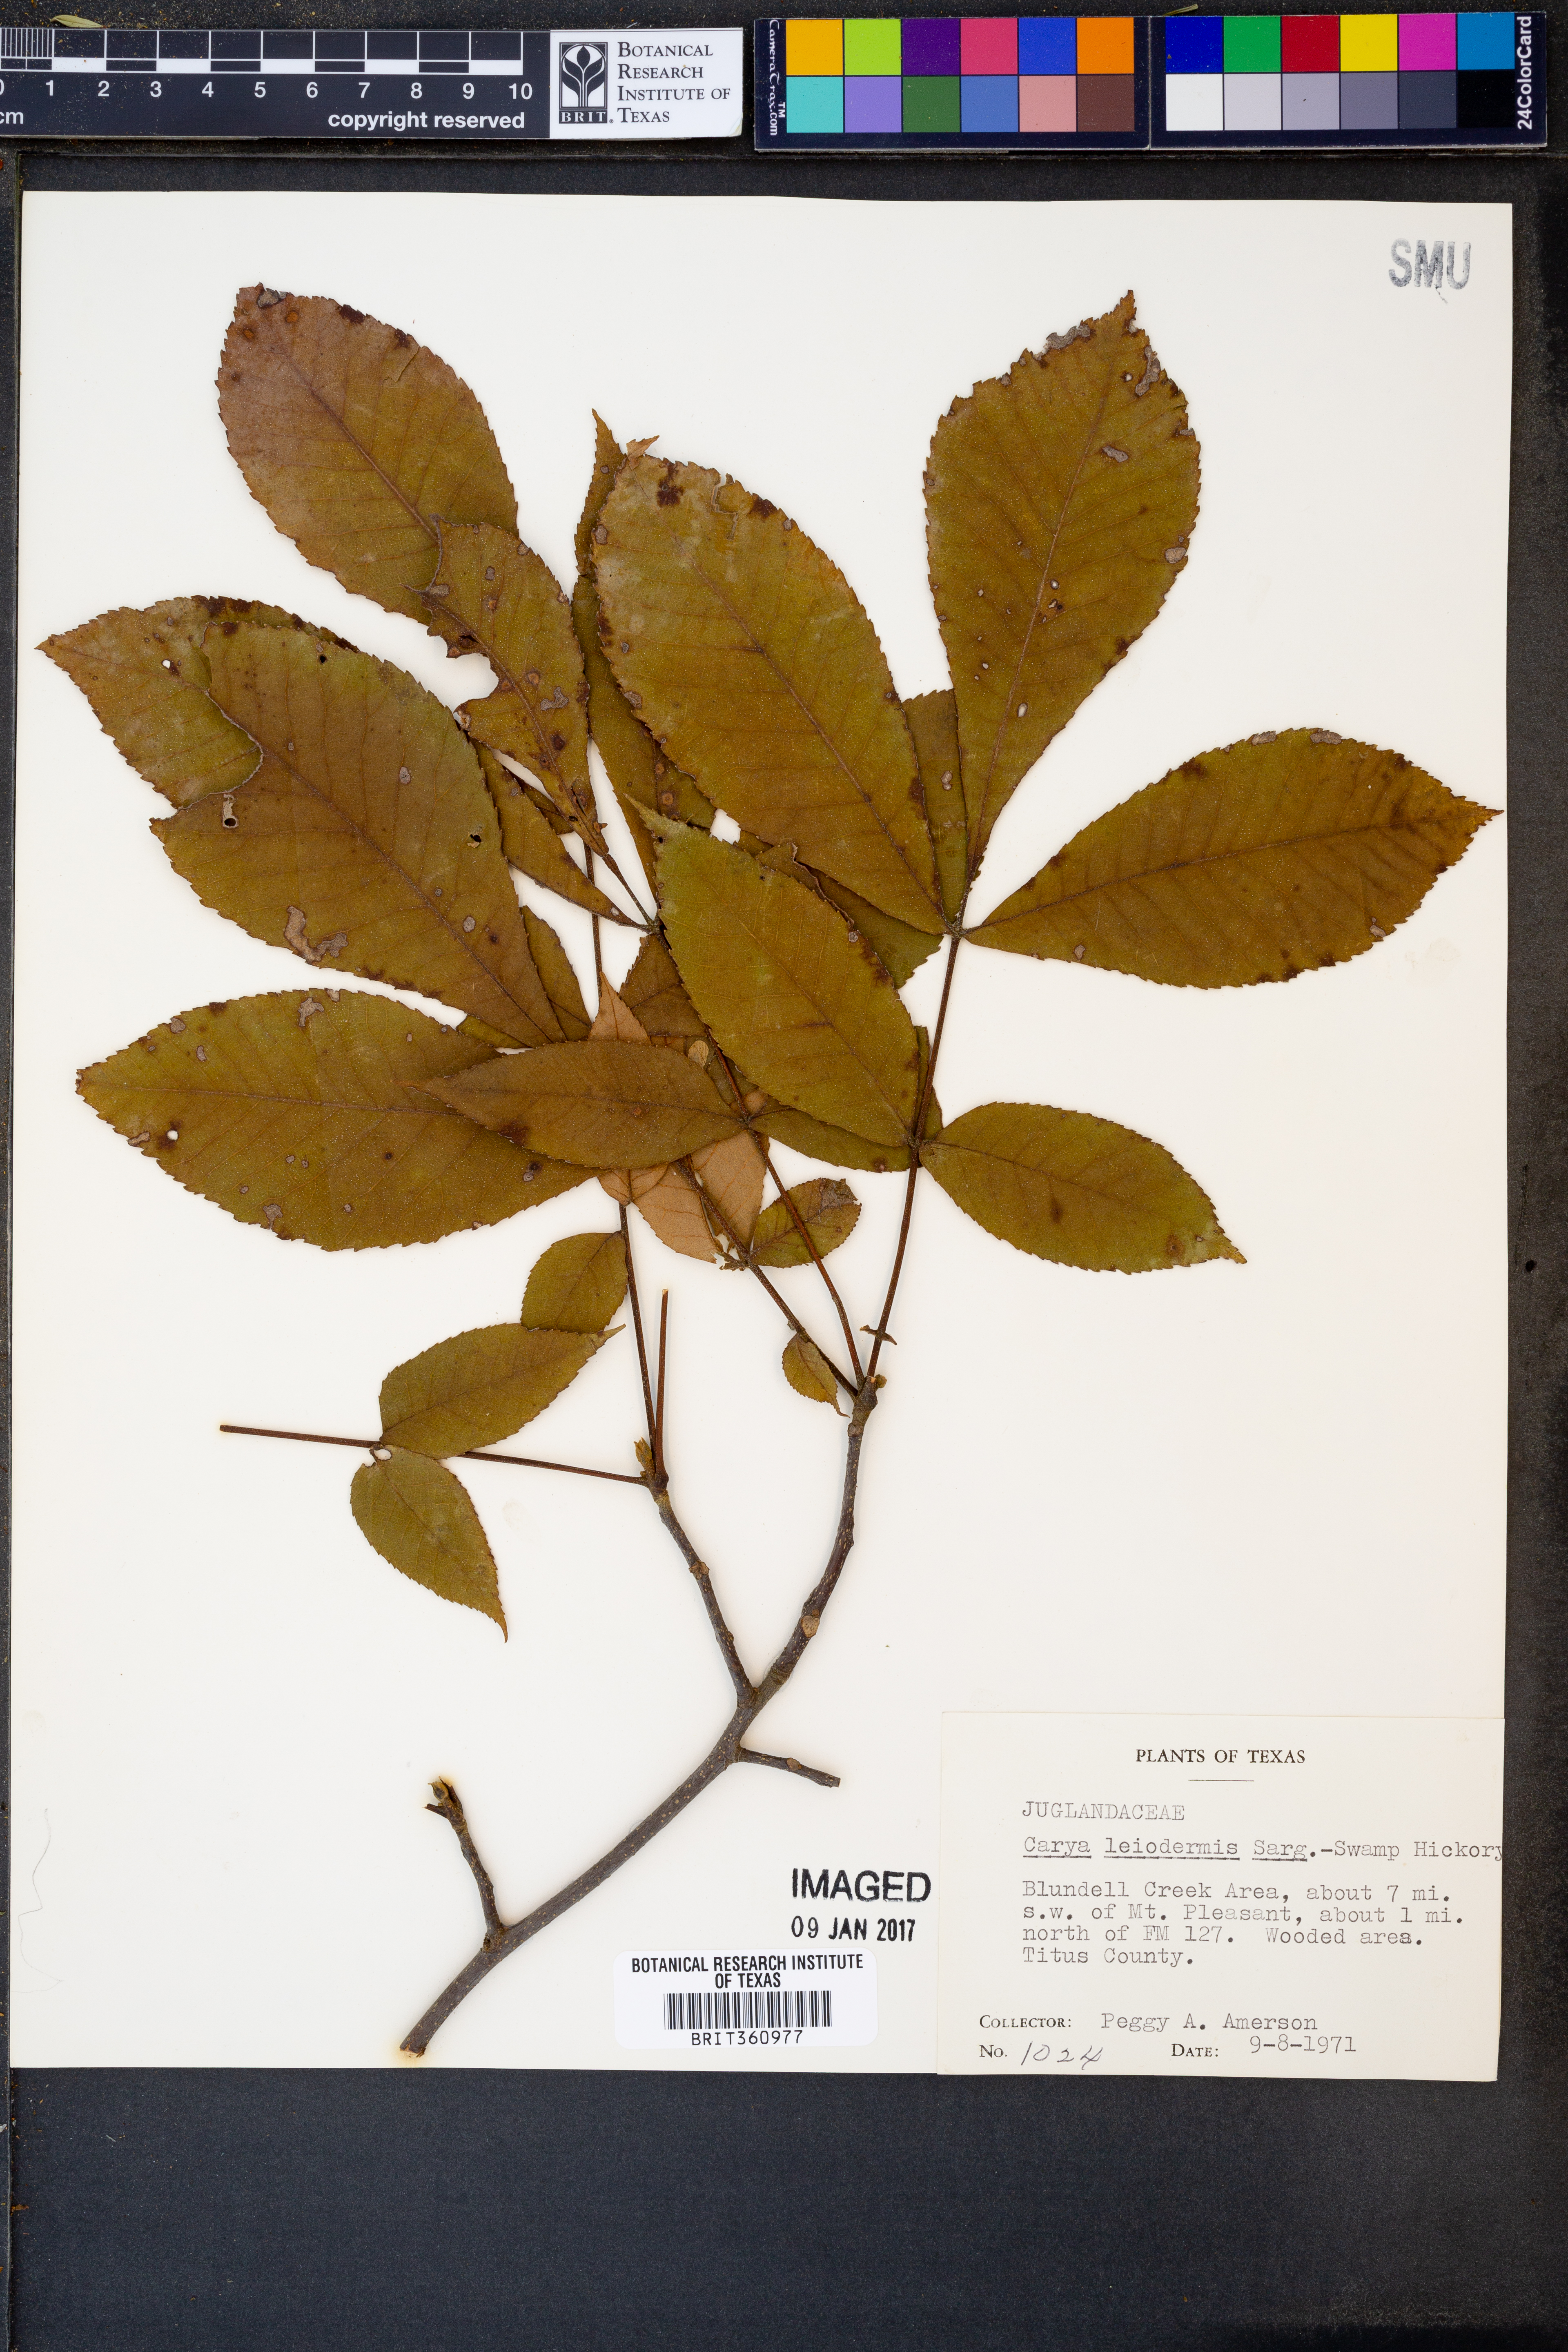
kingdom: Plantae
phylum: Tracheophyta
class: Magnoliopsida
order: Fagales
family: Juglandaceae
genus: Carya
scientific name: Carya glabra
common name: Pignut hickory
